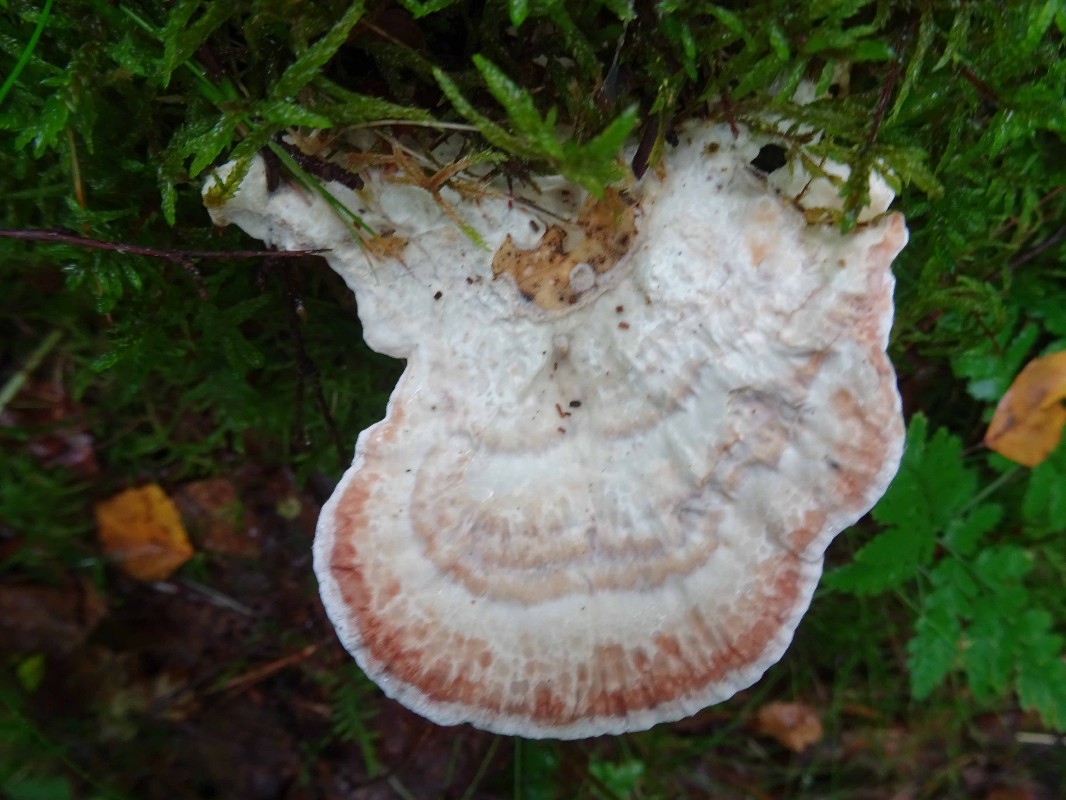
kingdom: Fungi
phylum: Basidiomycota
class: Agaricomycetes
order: Polyporales
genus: Calcipostia
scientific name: Calcipostia guttulata
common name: dråbe-kødporesvamp
